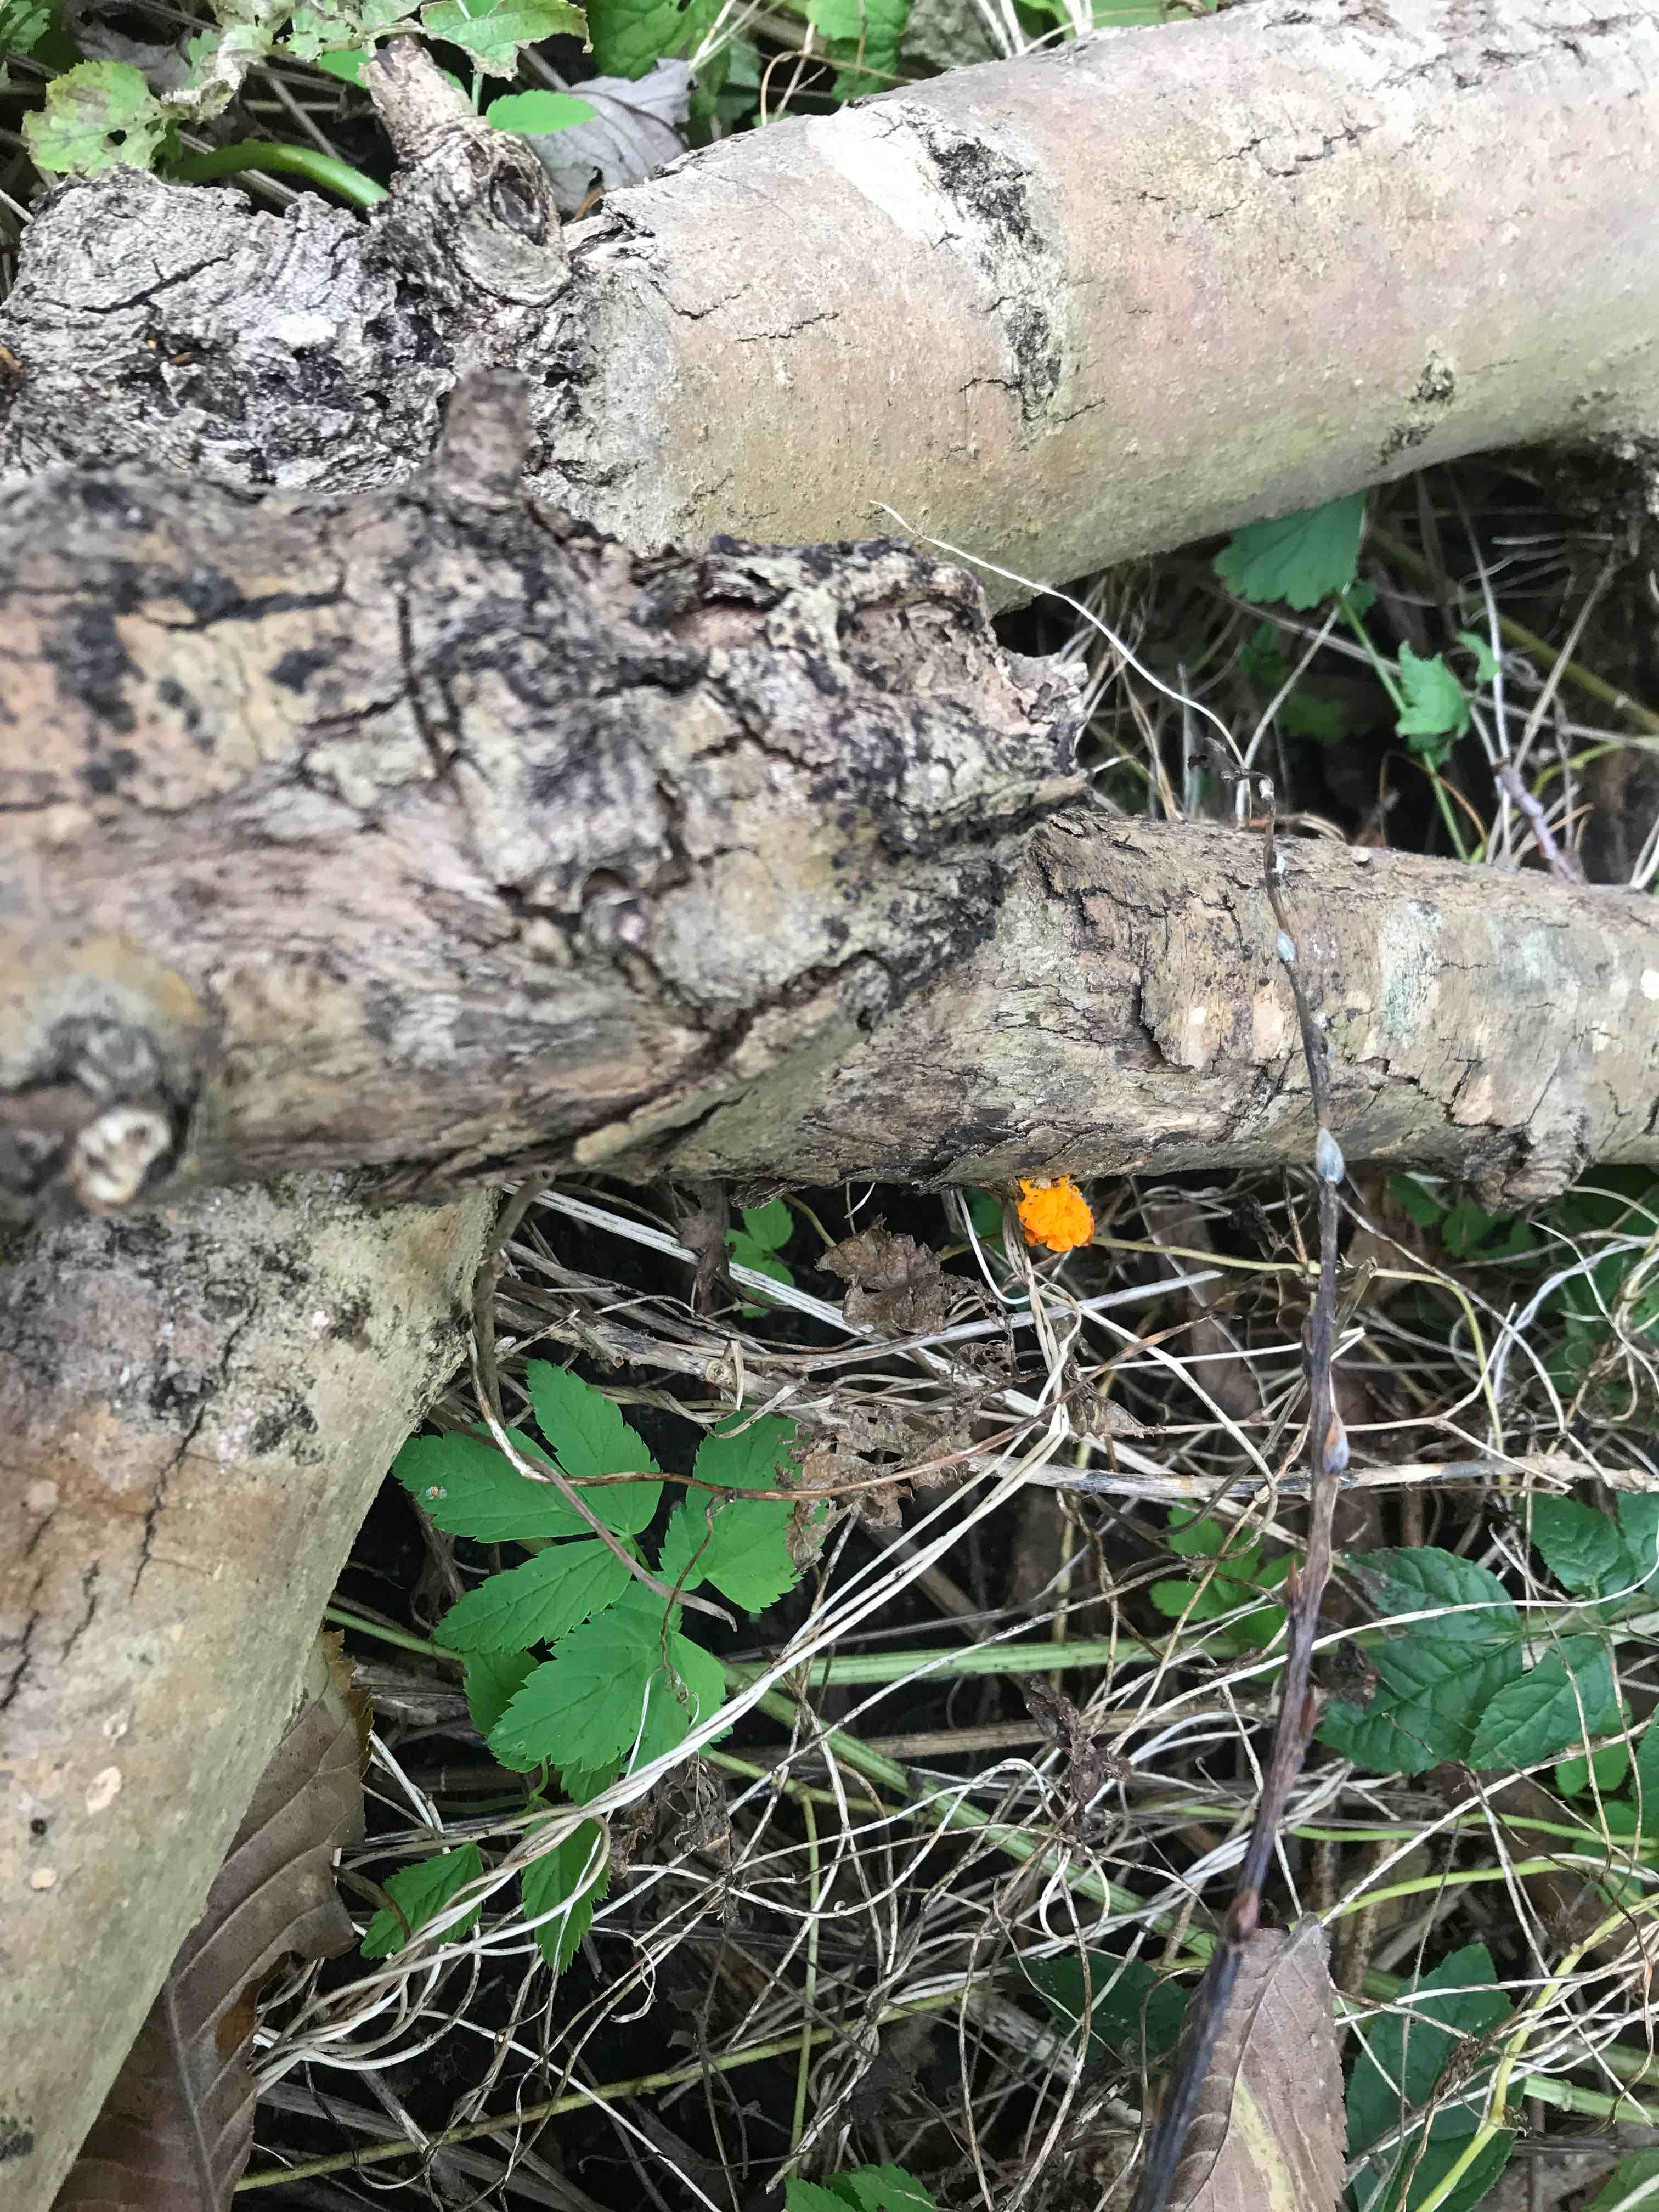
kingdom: Fungi
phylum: Basidiomycota
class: Tremellomycetes
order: Tremellales
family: Tremellaceae
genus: Tremella
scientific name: Tremella mesenterica
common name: gul bævresvamp
